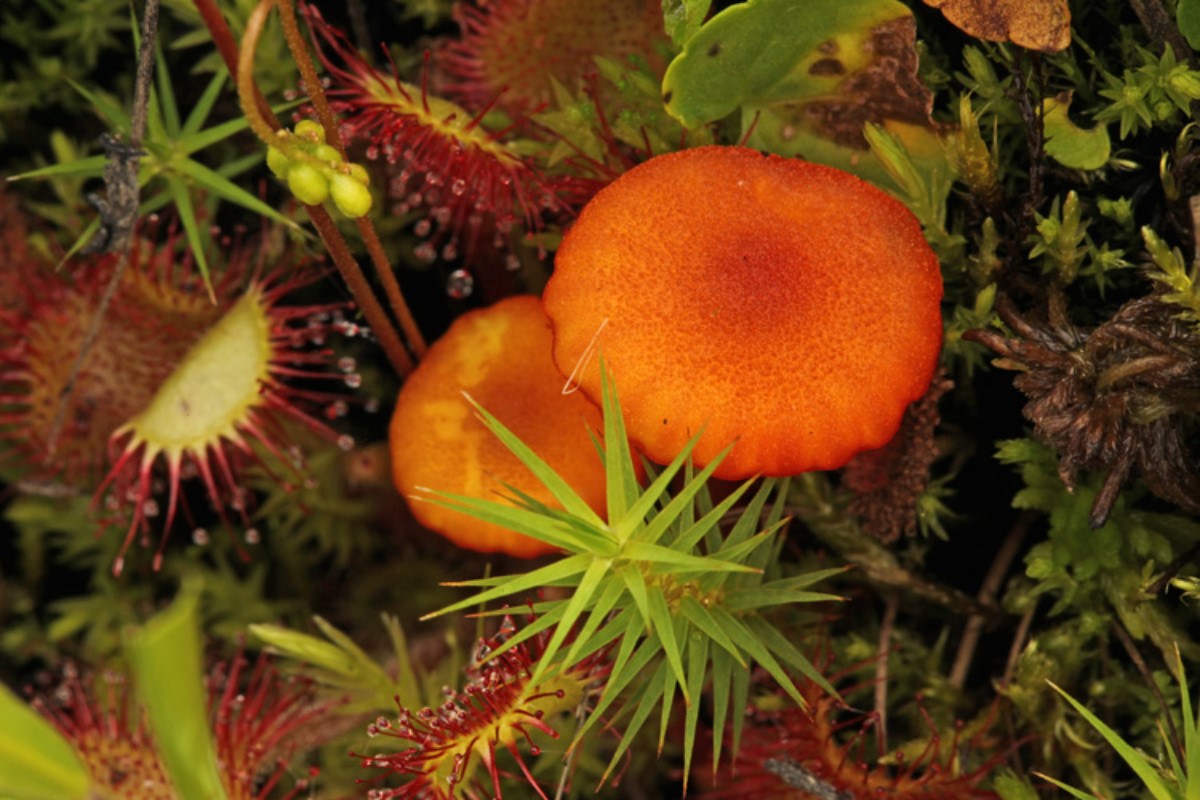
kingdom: Fungi
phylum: Basidiomycota
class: Agaricomycetes
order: Agaricales
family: Hygrophoraceae
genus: Hygrocybe
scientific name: Hygrocybe coccineocrenata
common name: tørvemos-vokshat
